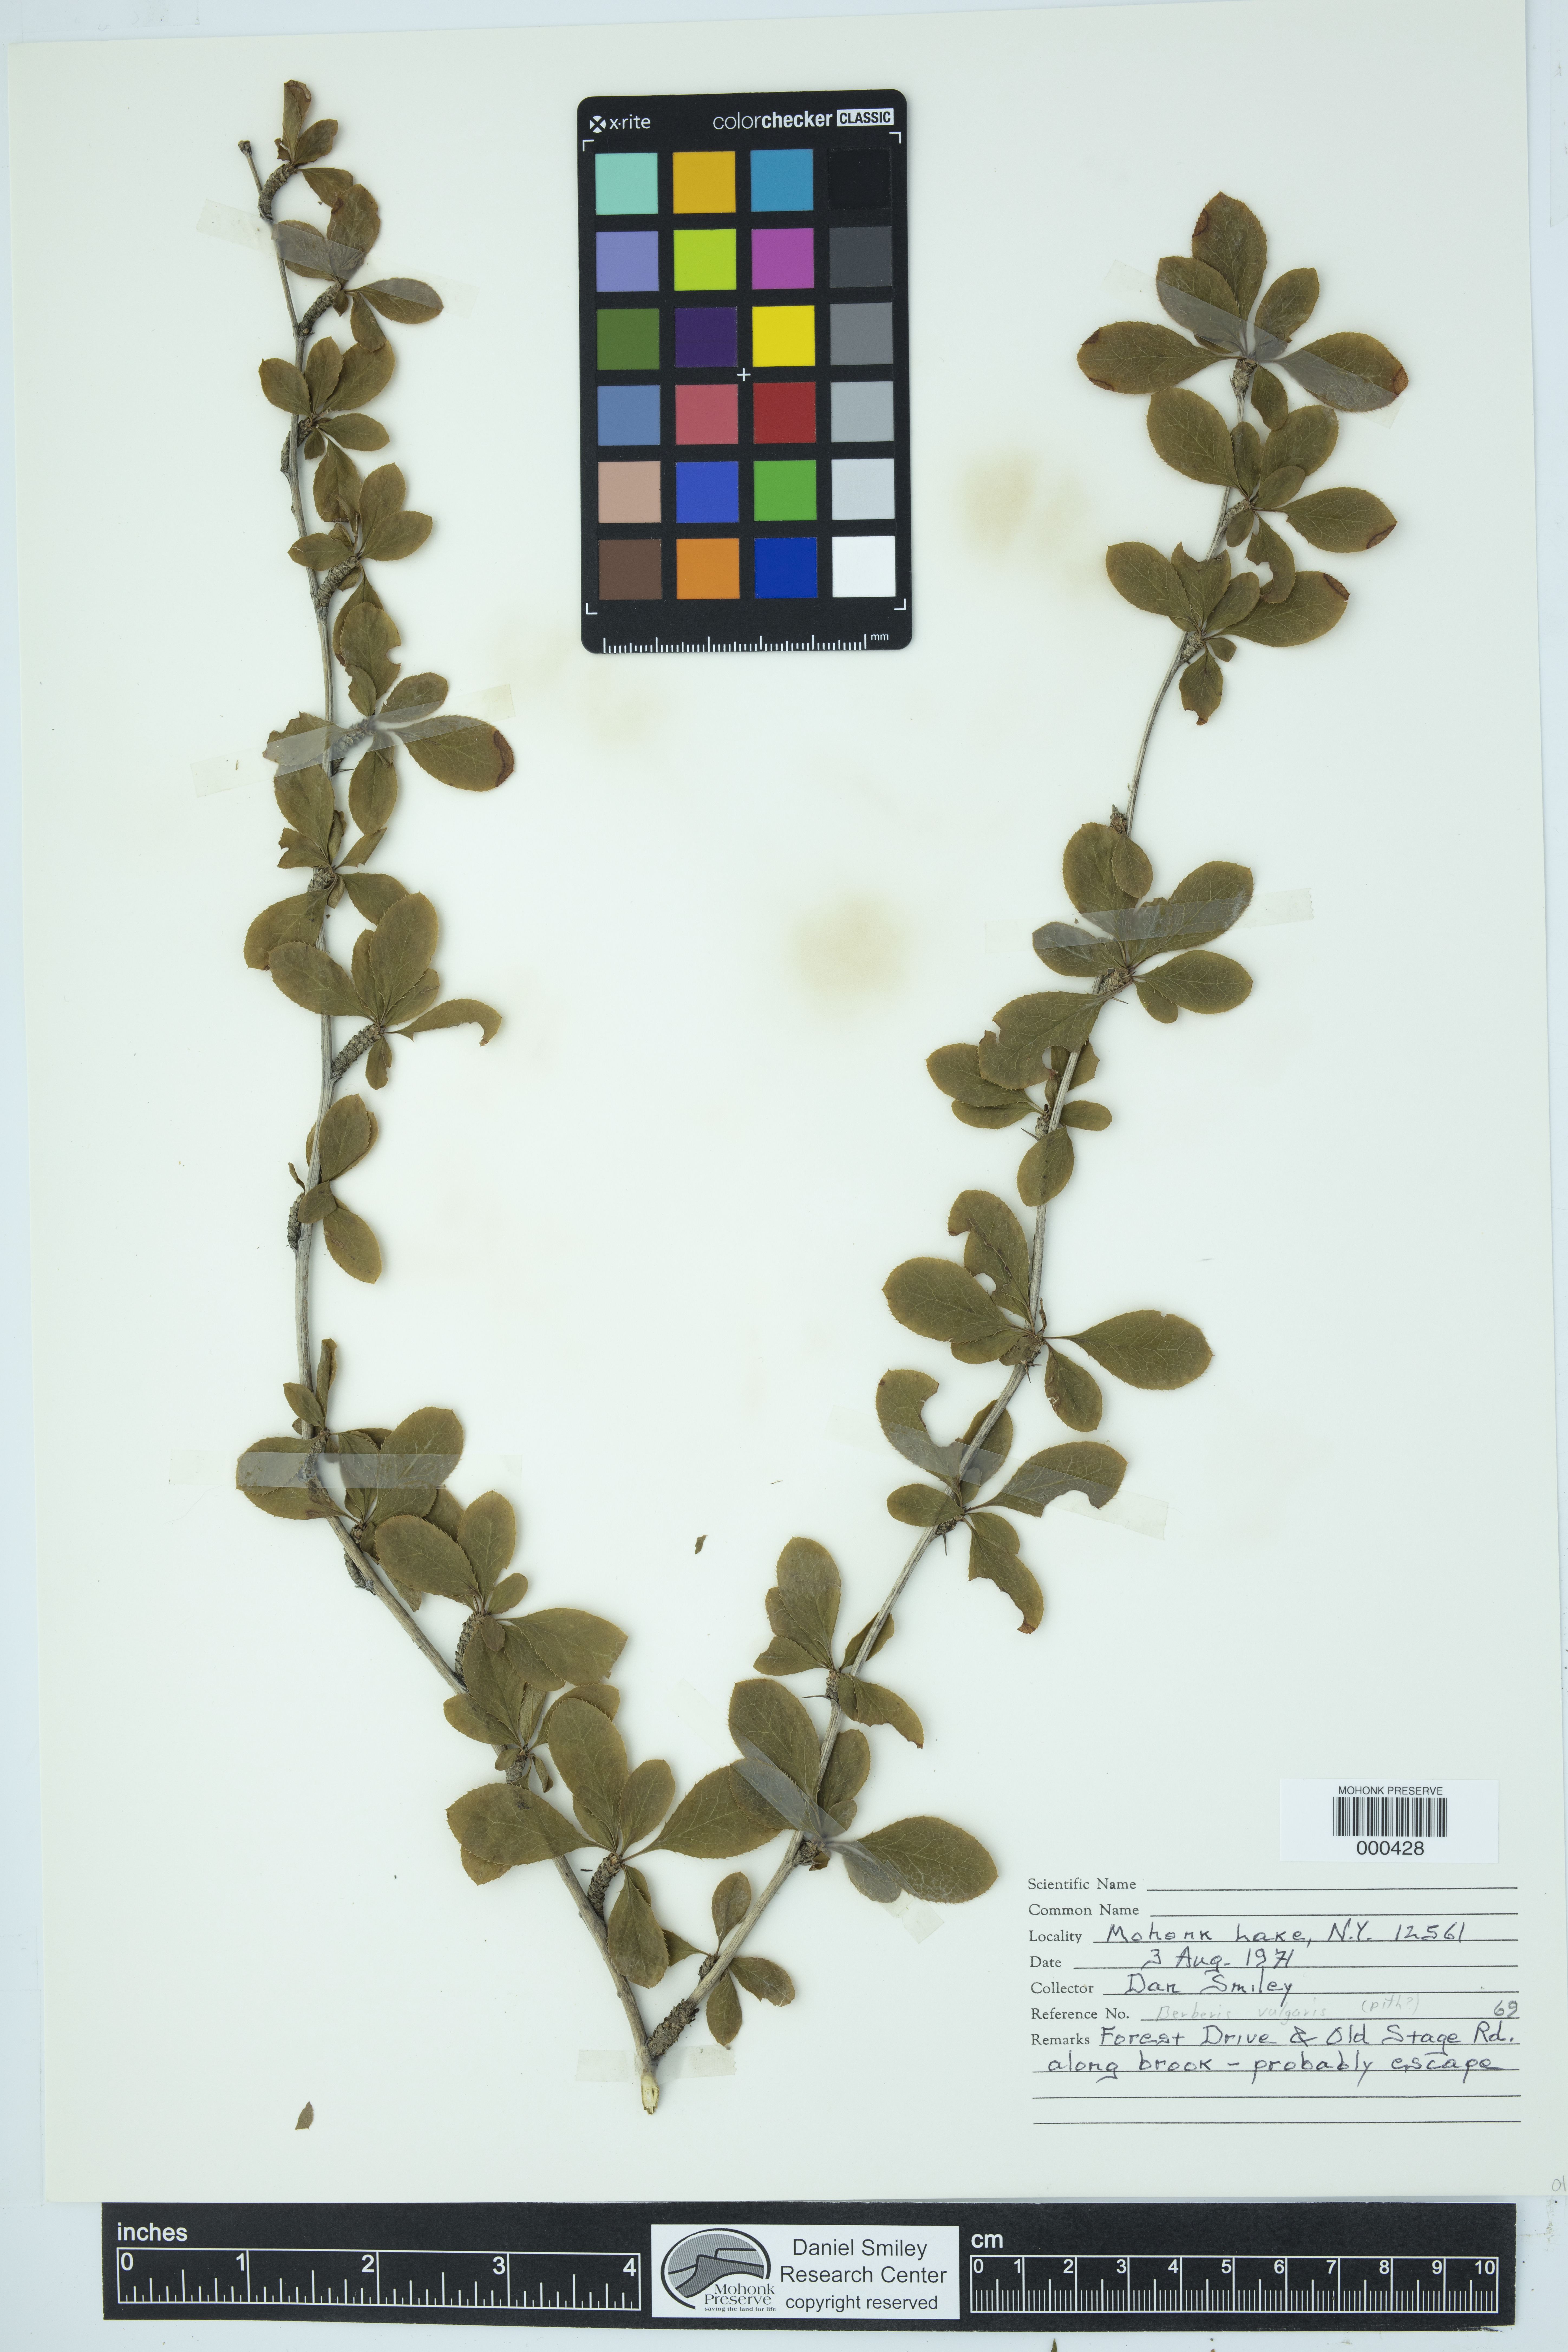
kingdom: Plantae
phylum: Tracheophyta
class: Magnoliopsida
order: Ranunculales
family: Berberidaceae
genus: Berberis
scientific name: Berberis vulgaris
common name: Barberry
